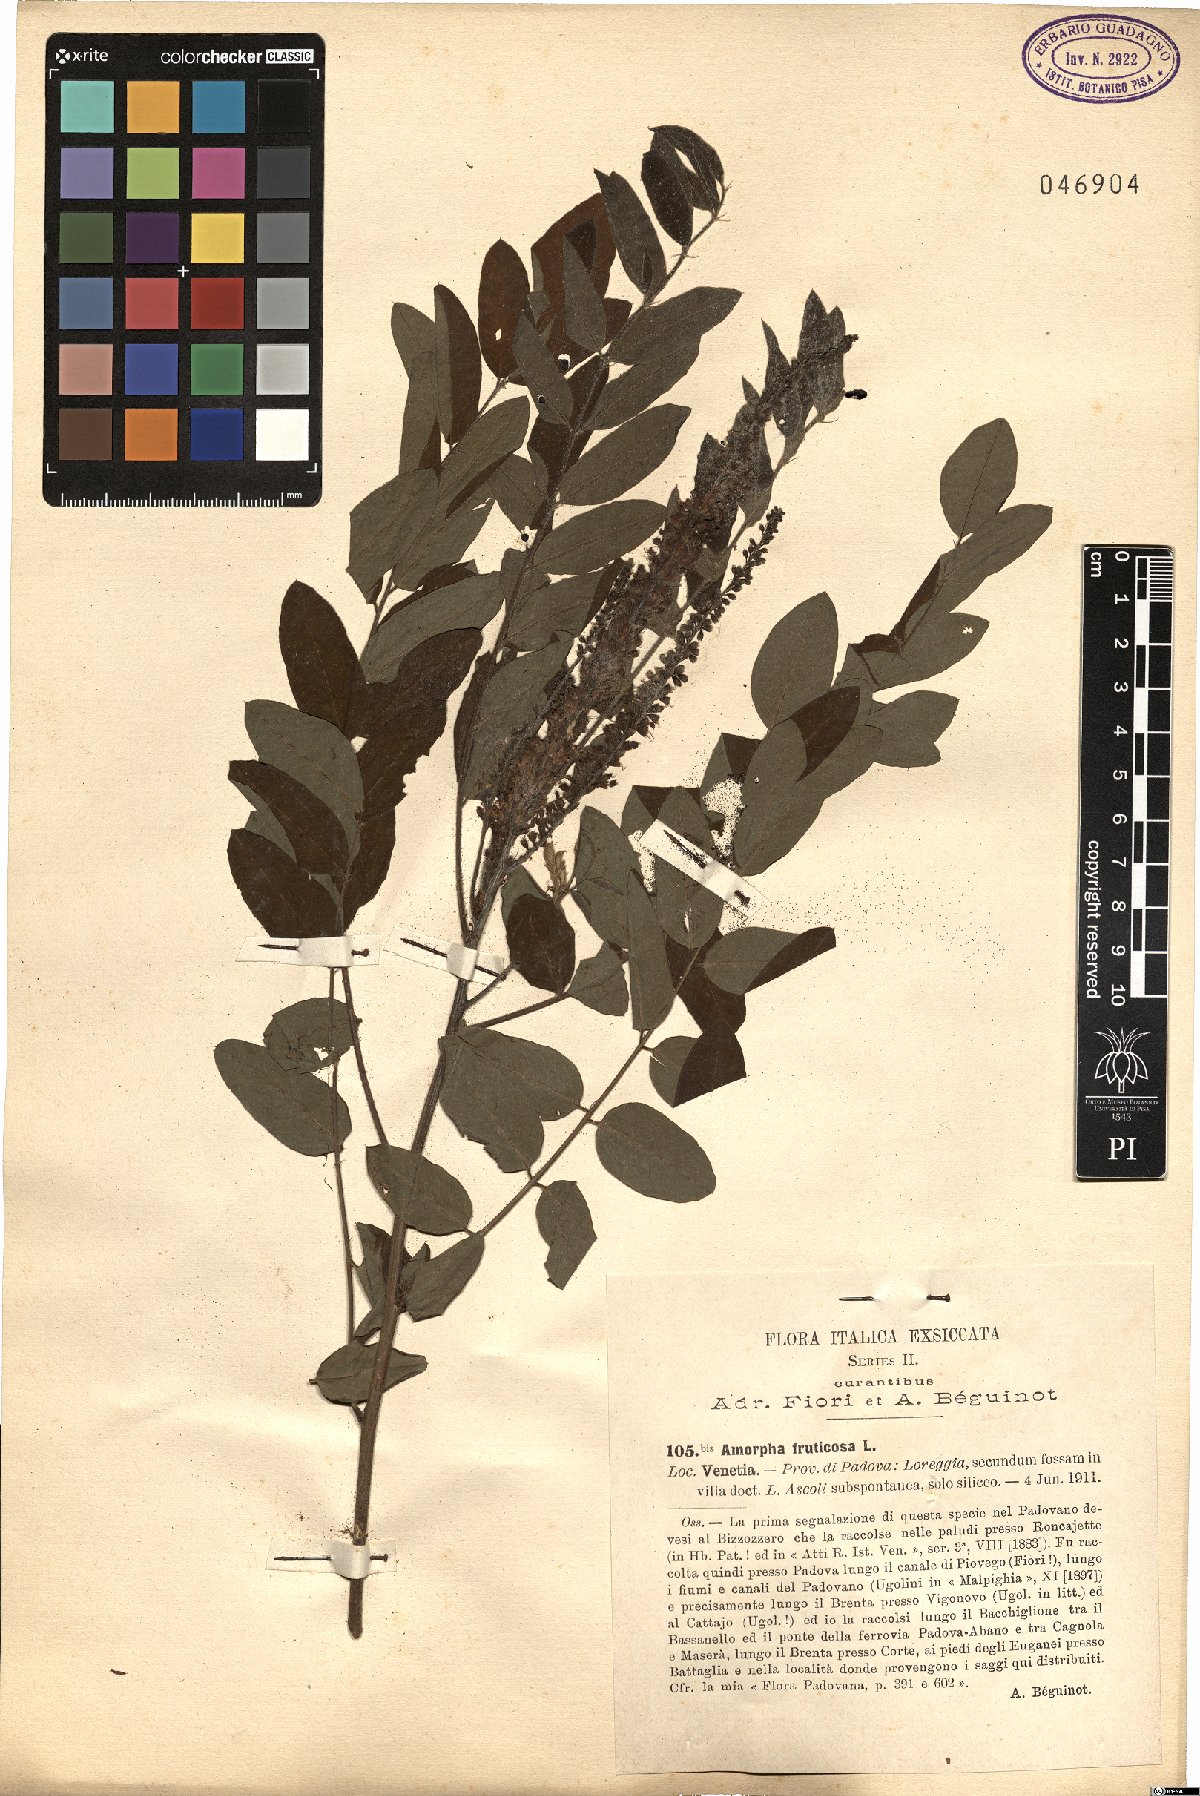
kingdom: Plantae
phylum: Tracheophyta
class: Magnoliopsida
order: Fabales
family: Fabaceae
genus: Amorpha
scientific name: Amorpha fruticosa
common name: False indigo
